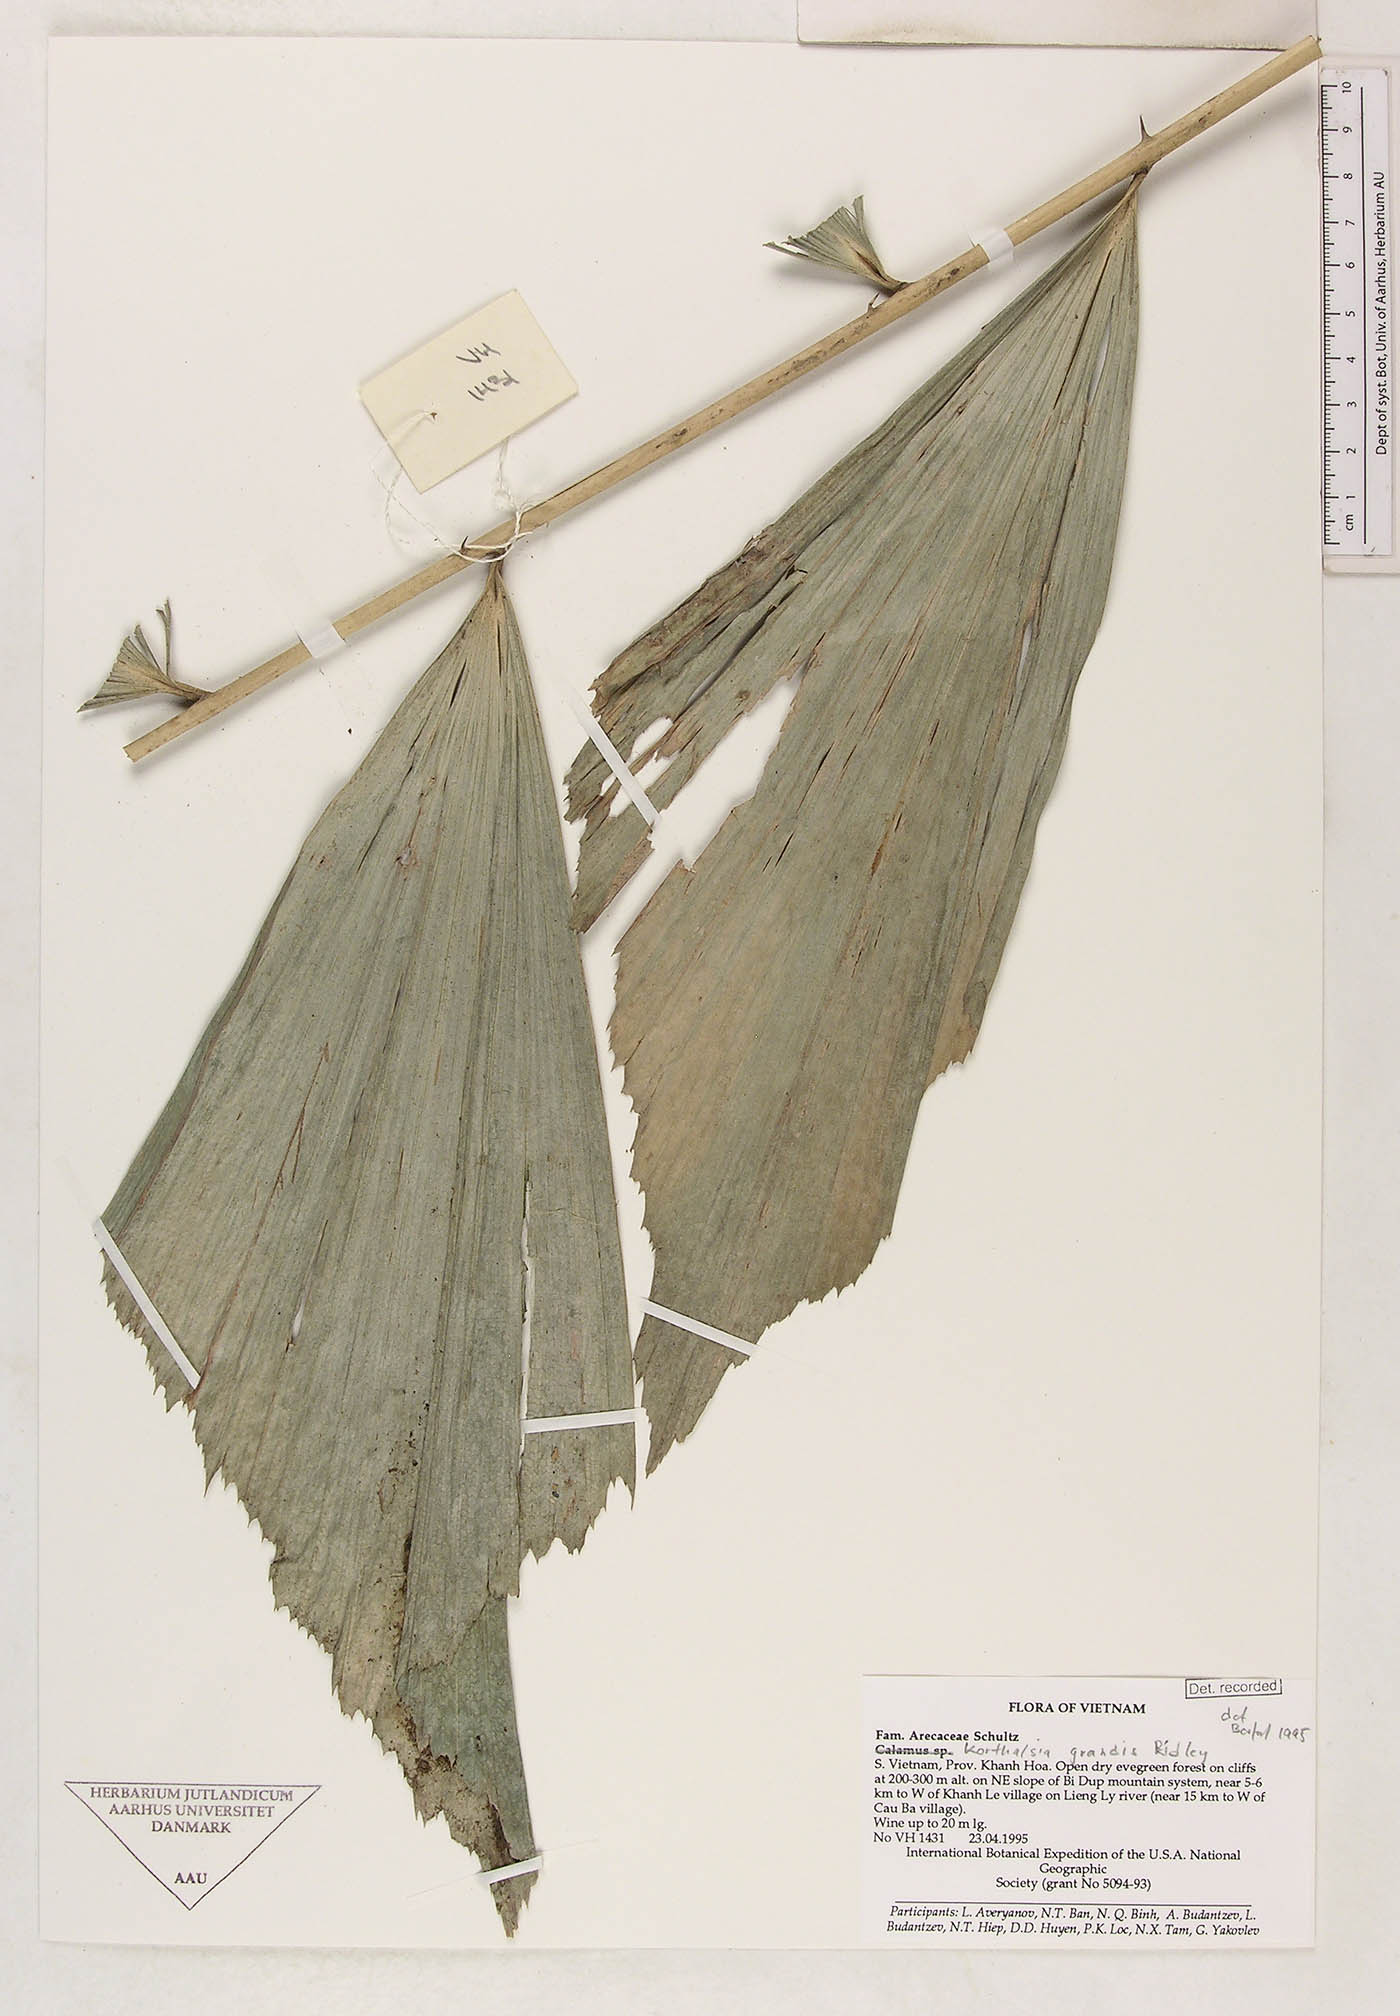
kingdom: Plantae
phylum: Tracheophyta
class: Liliopsida
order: Arecales
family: Arecaceae
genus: Korthalsia
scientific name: Korthalsia laciniosa
